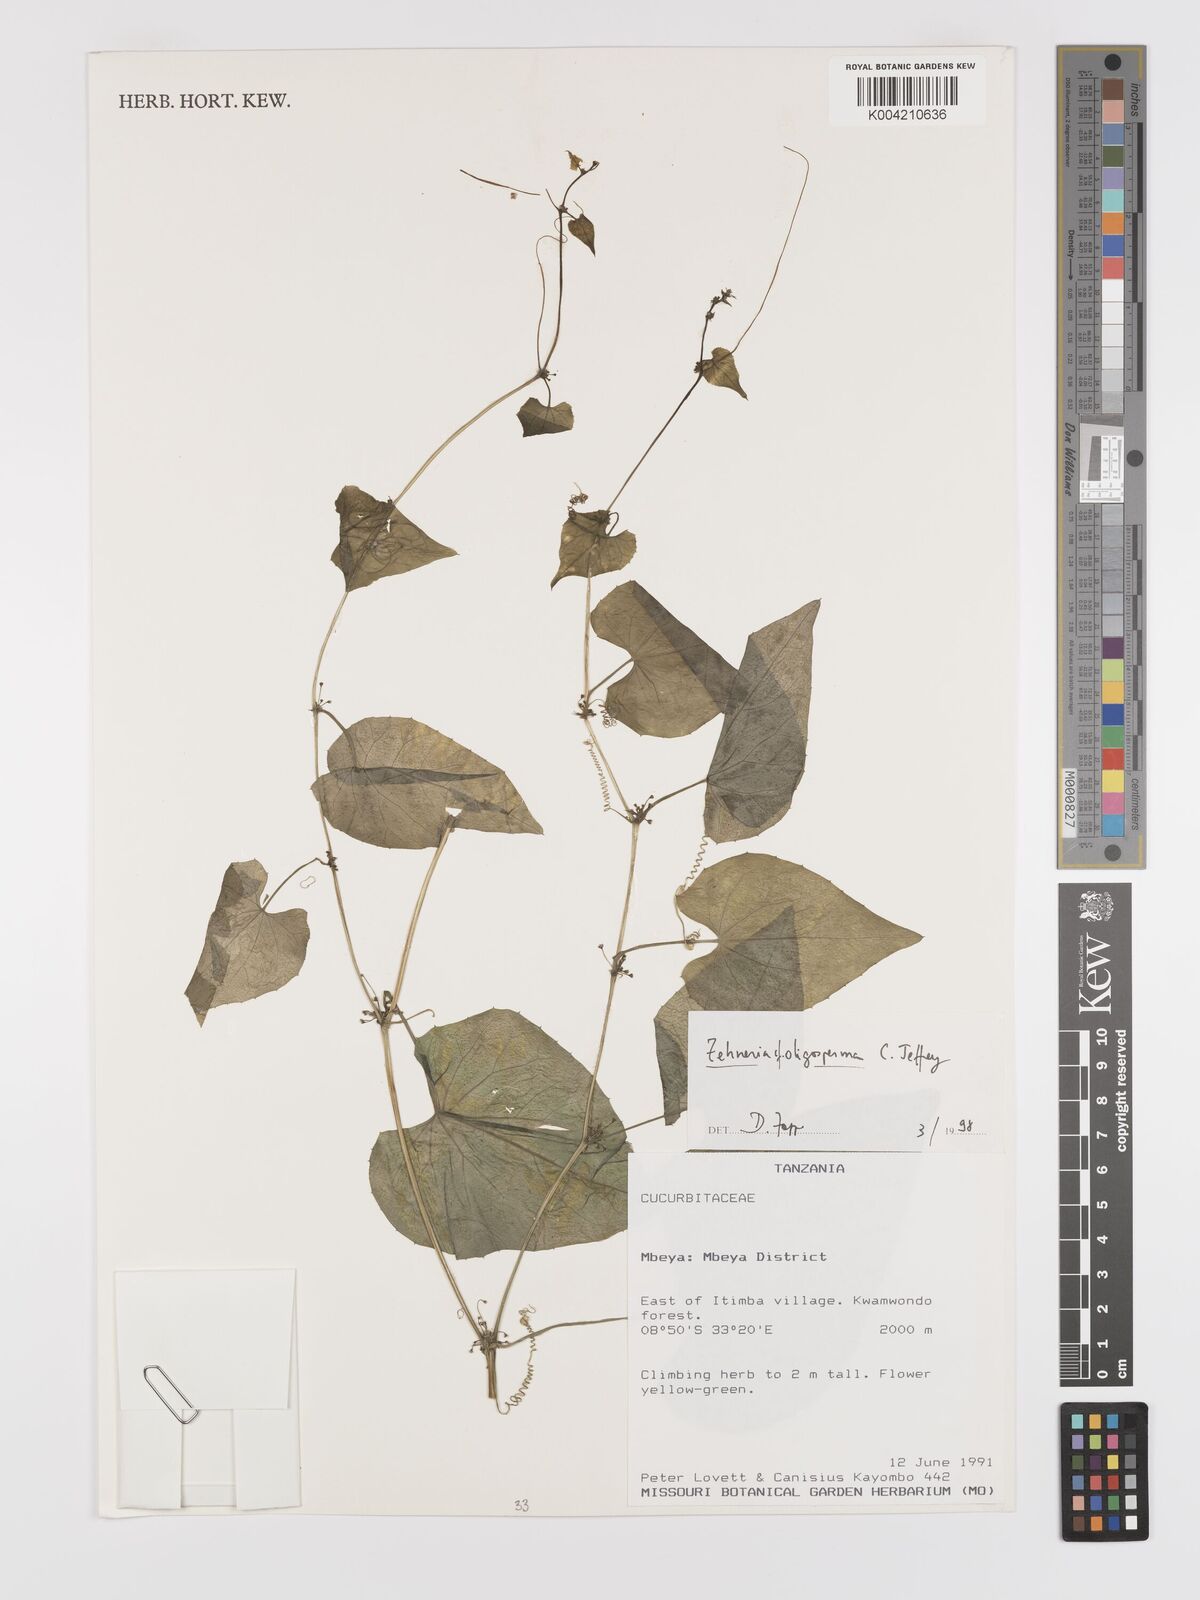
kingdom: Plantae
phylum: Tracheophyta
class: Magnoliopsida
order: Cucurbitales
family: Cucurbitaceae
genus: Zehneria
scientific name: Zehneria oligosperma
